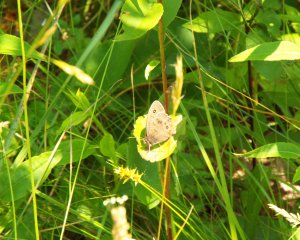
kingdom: Animalia
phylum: Arthropoda
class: Insecta
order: Lepidoptera
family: Nymphalidae
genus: Cercyonis
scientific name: Cercyonis pegala
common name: Common Wood-Nymph
